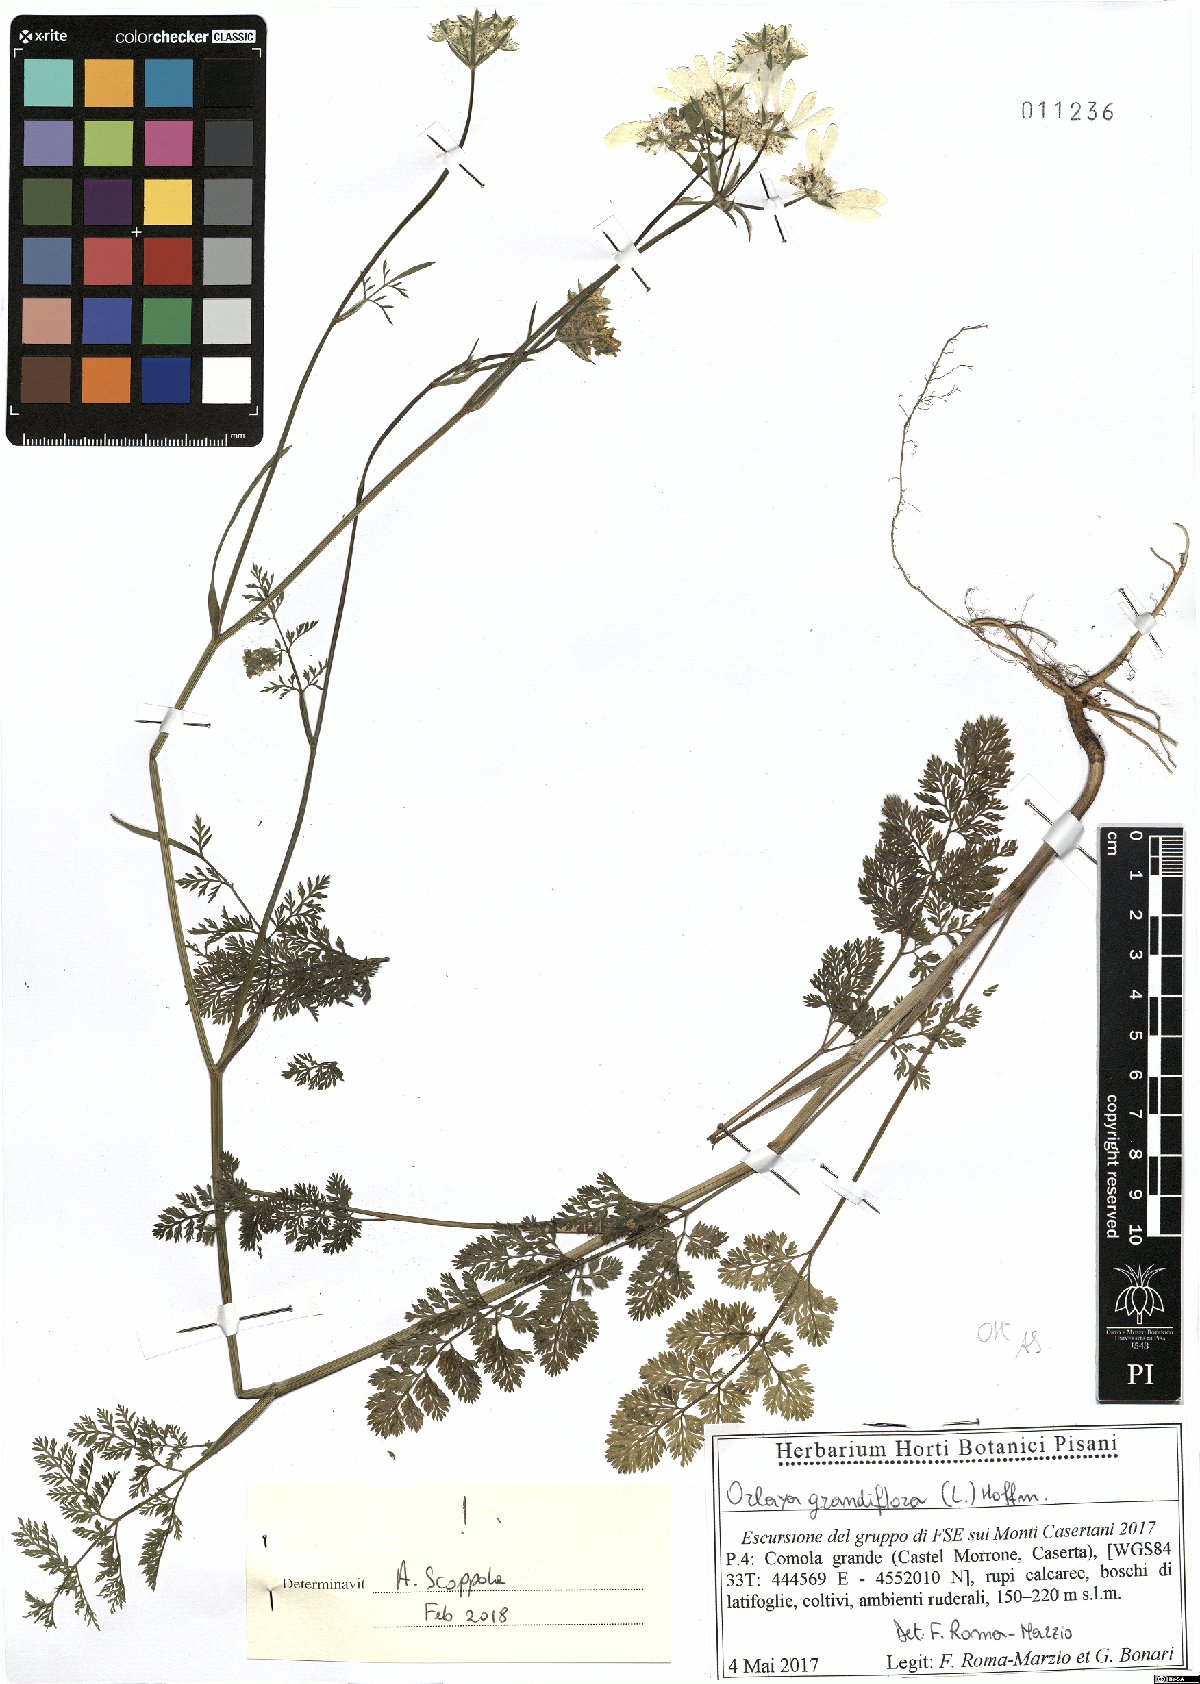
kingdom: Plantae
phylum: Tracheophyta
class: Magnoliopsida
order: Apiales
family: Apiaceae
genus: Orlaya
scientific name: Orlaya grandiflora
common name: White lace flower
